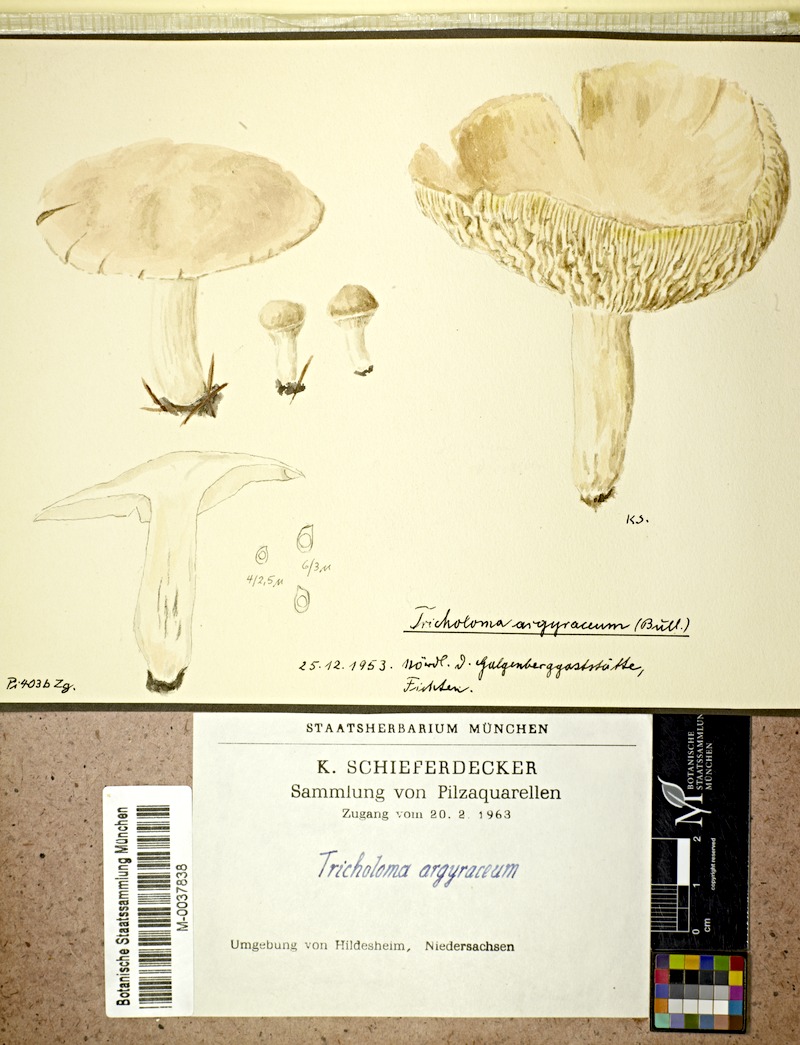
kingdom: Fungi
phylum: Basidiomycota
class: Agaricomycetes
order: Agaricales
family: Tricholomataceae
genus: Tricholoma
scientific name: Tricholoma argyraceum
